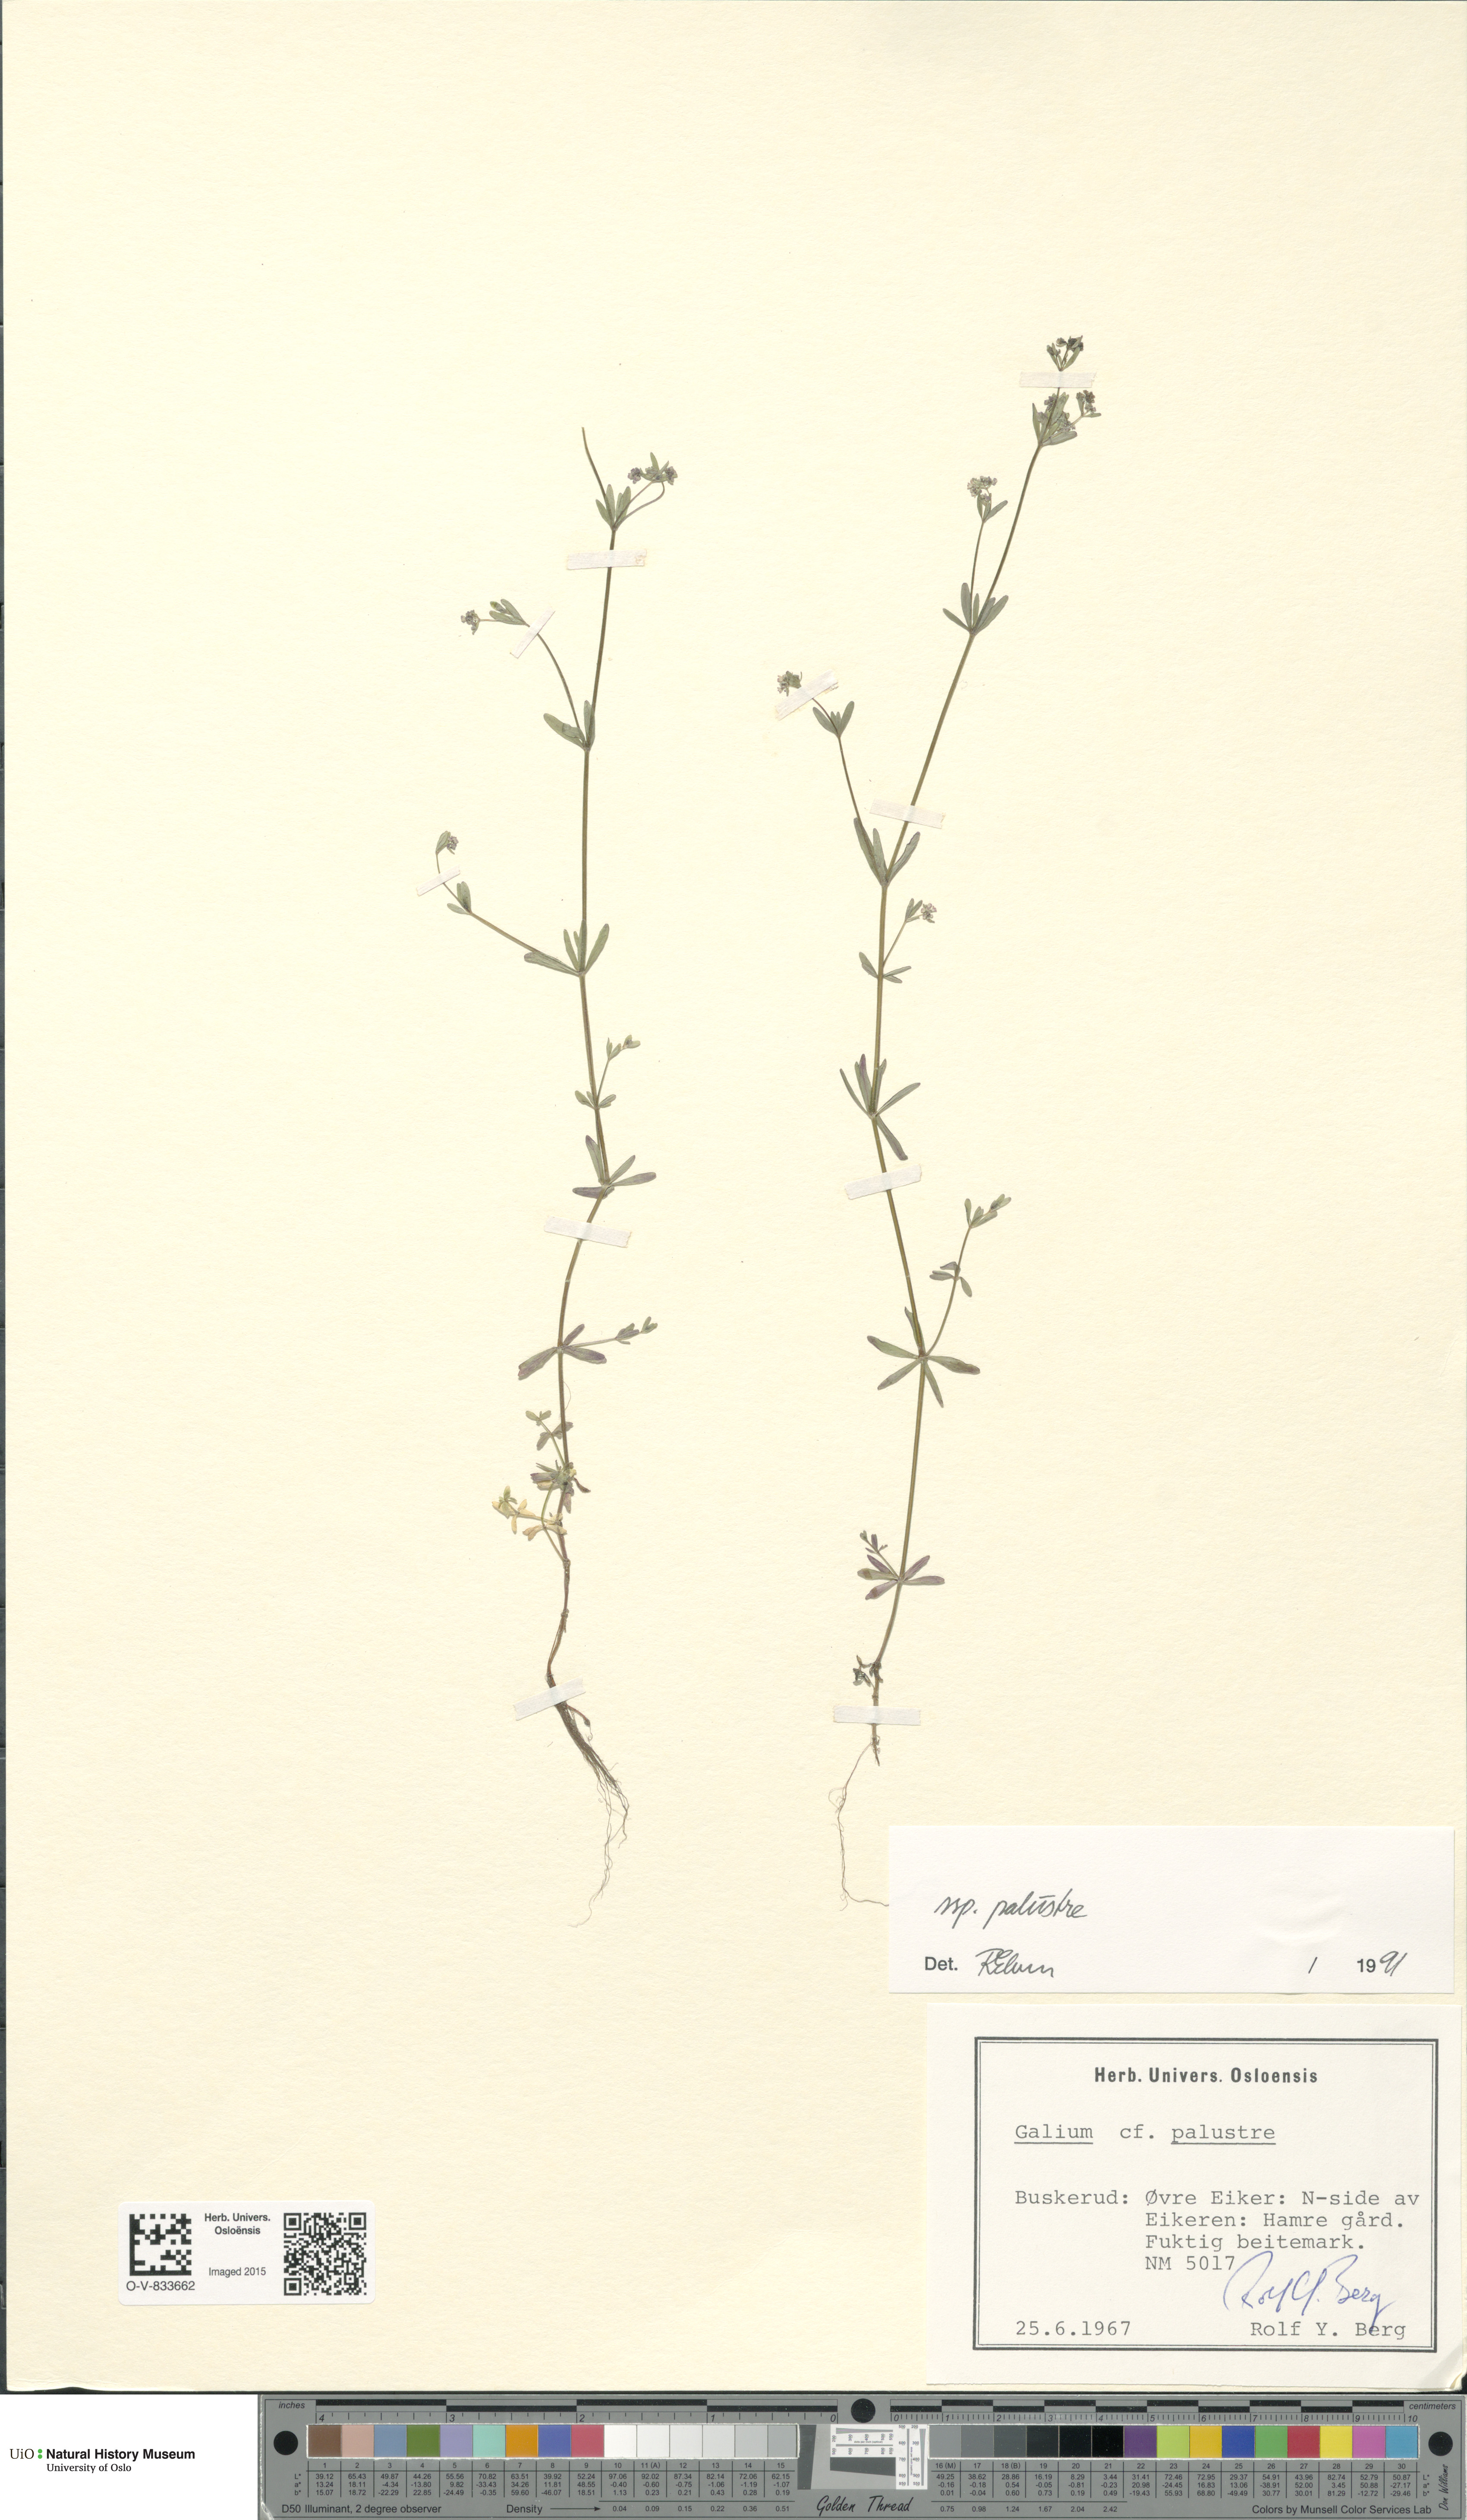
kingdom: Plantae
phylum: Tracheophyta
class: Magnoliopsida
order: Gentianales
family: Rubiaceae
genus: Galium
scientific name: Galium palustre
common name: Common marsh-bedstraw
